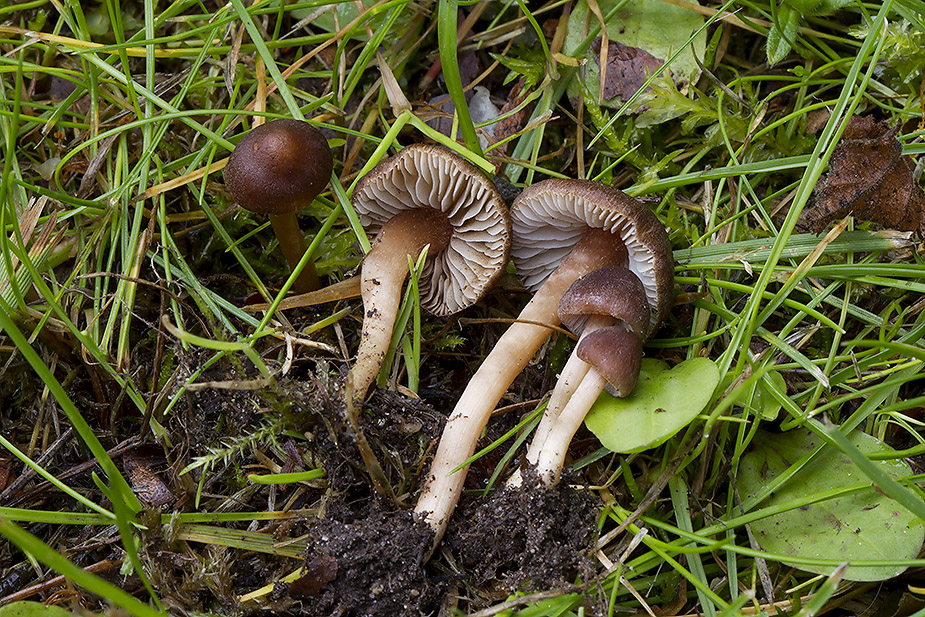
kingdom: Fungi
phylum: Basidiomycota
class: Agaricomycetes
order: Agaricales
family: Inocybaceae
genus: Inocybe
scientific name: Inocybe derbschii
